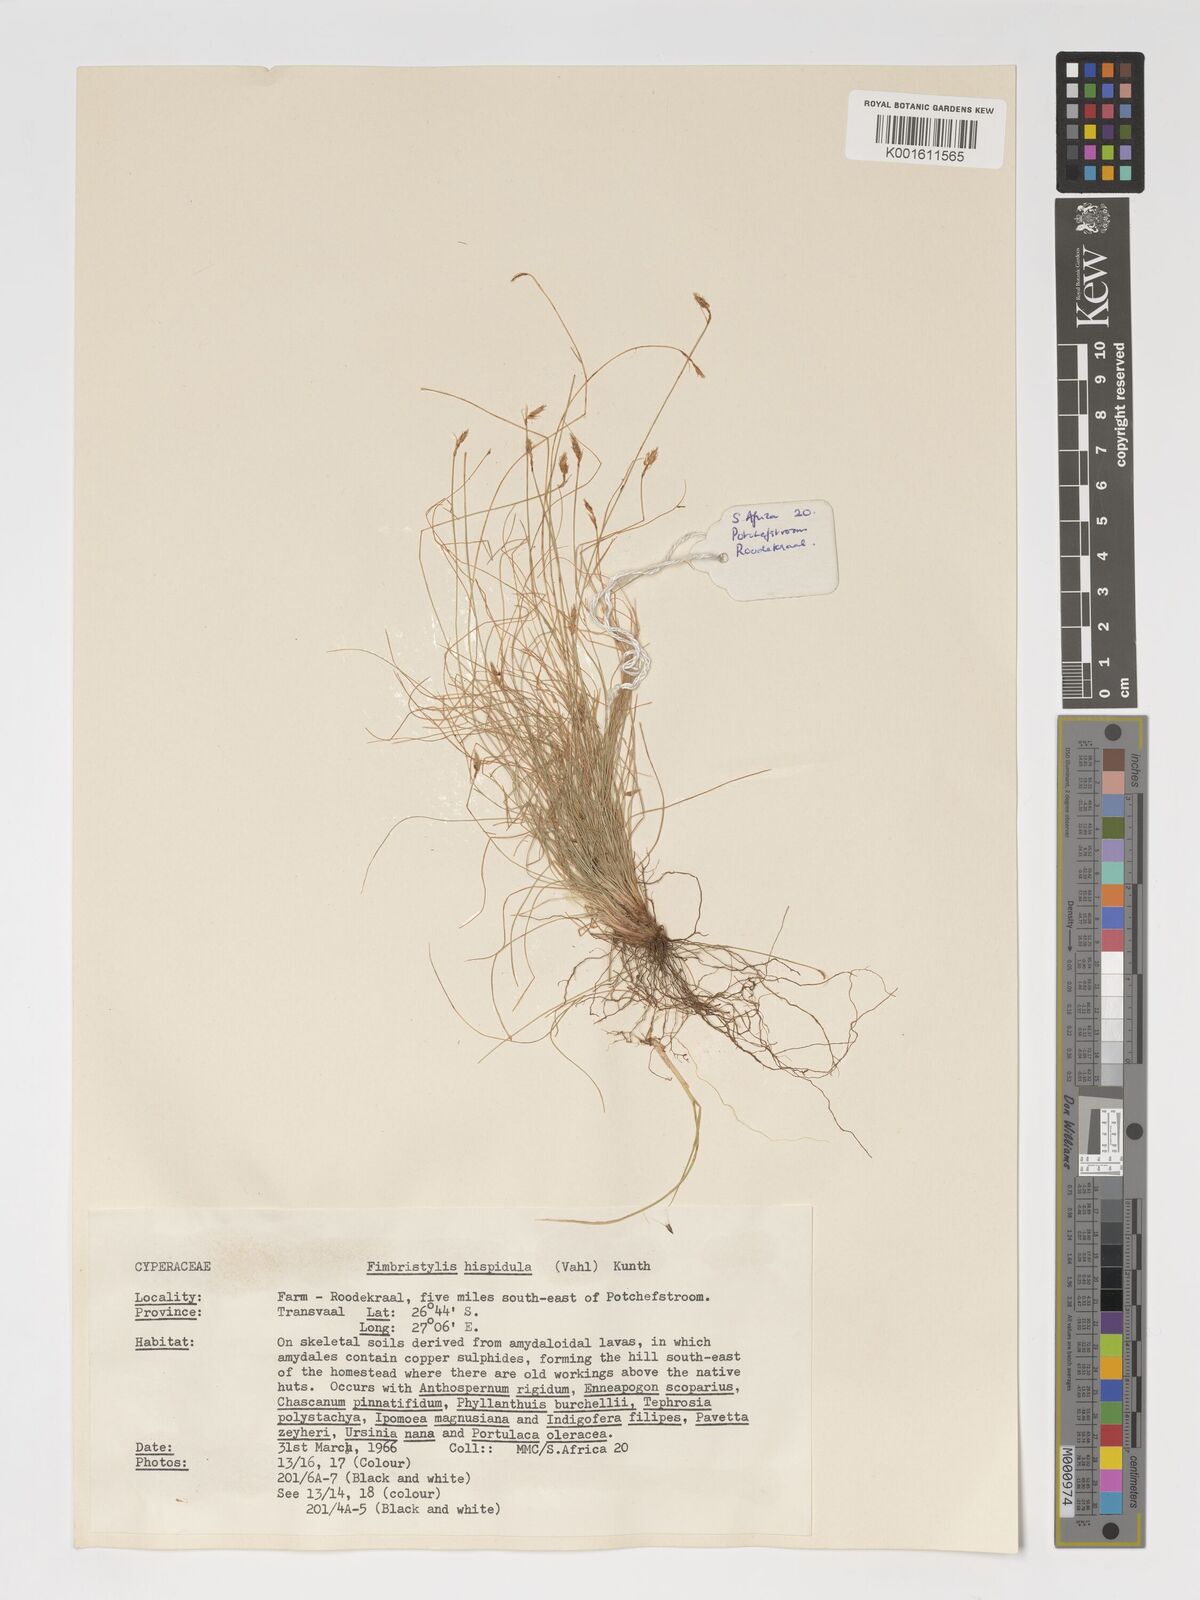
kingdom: Plantae
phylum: Tracheophyta
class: Liliopsida
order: Poales
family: Cyperaceae
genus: Bulbostylis
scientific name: Bulbostylis hispidula
